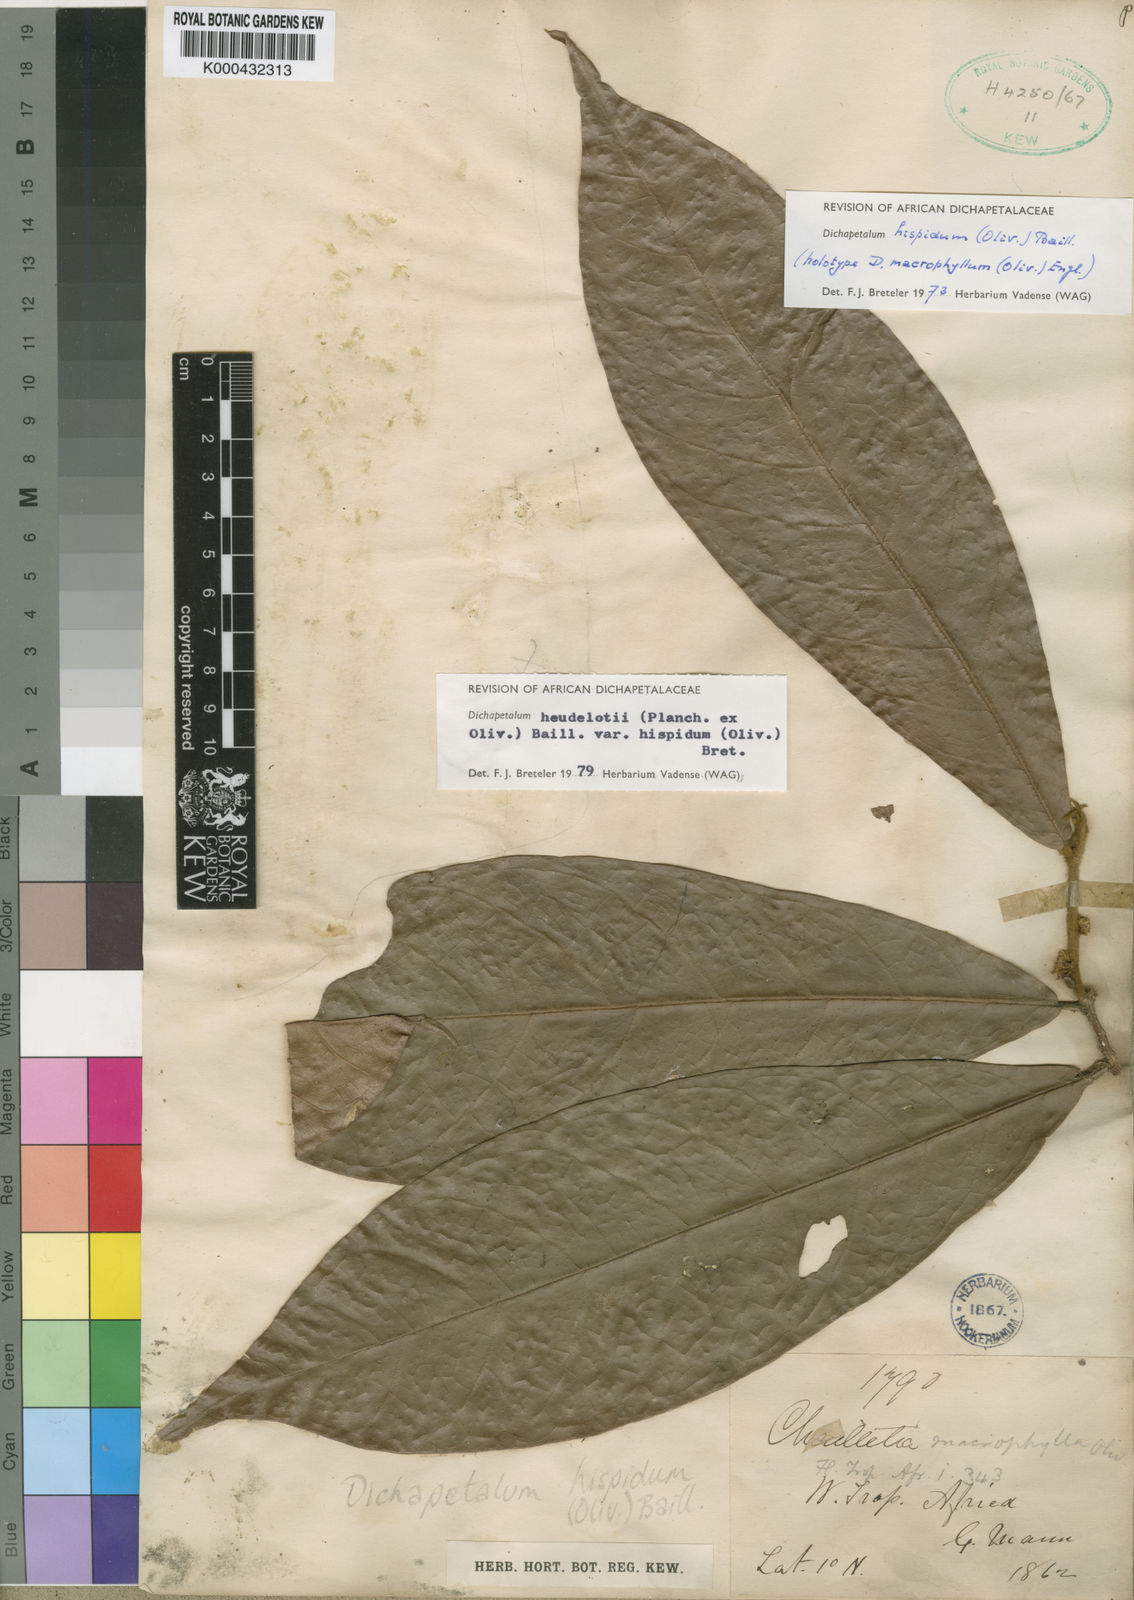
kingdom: Plantae
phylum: Tracheophyta
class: Magnoliopsida
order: Malpighiales
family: Dichapetalaceae
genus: Dichapetalum
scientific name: Dichapetalum heudelotii
